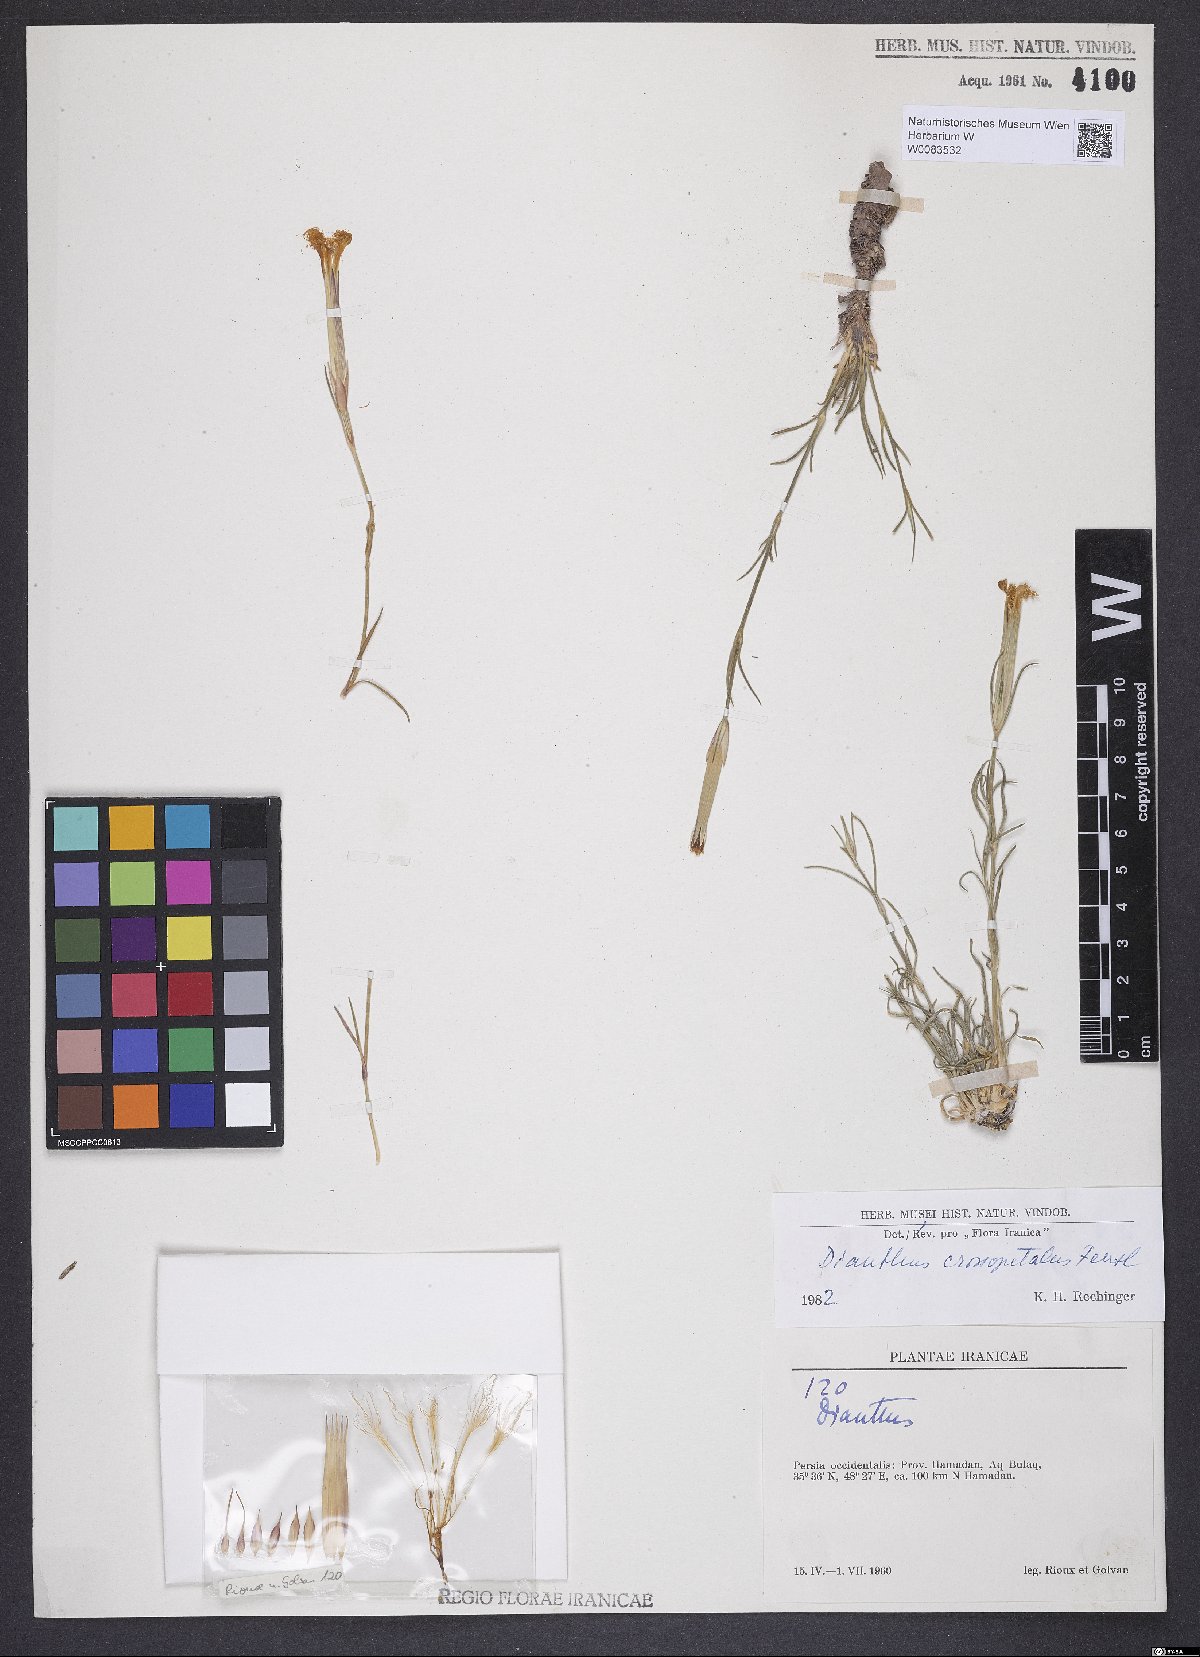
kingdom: Plantae
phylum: Tracheophyta
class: Magnoliopsida
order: Caryophyllales
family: Caryophyllaceae
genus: Dianthus
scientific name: Dianthus crossopetalus
